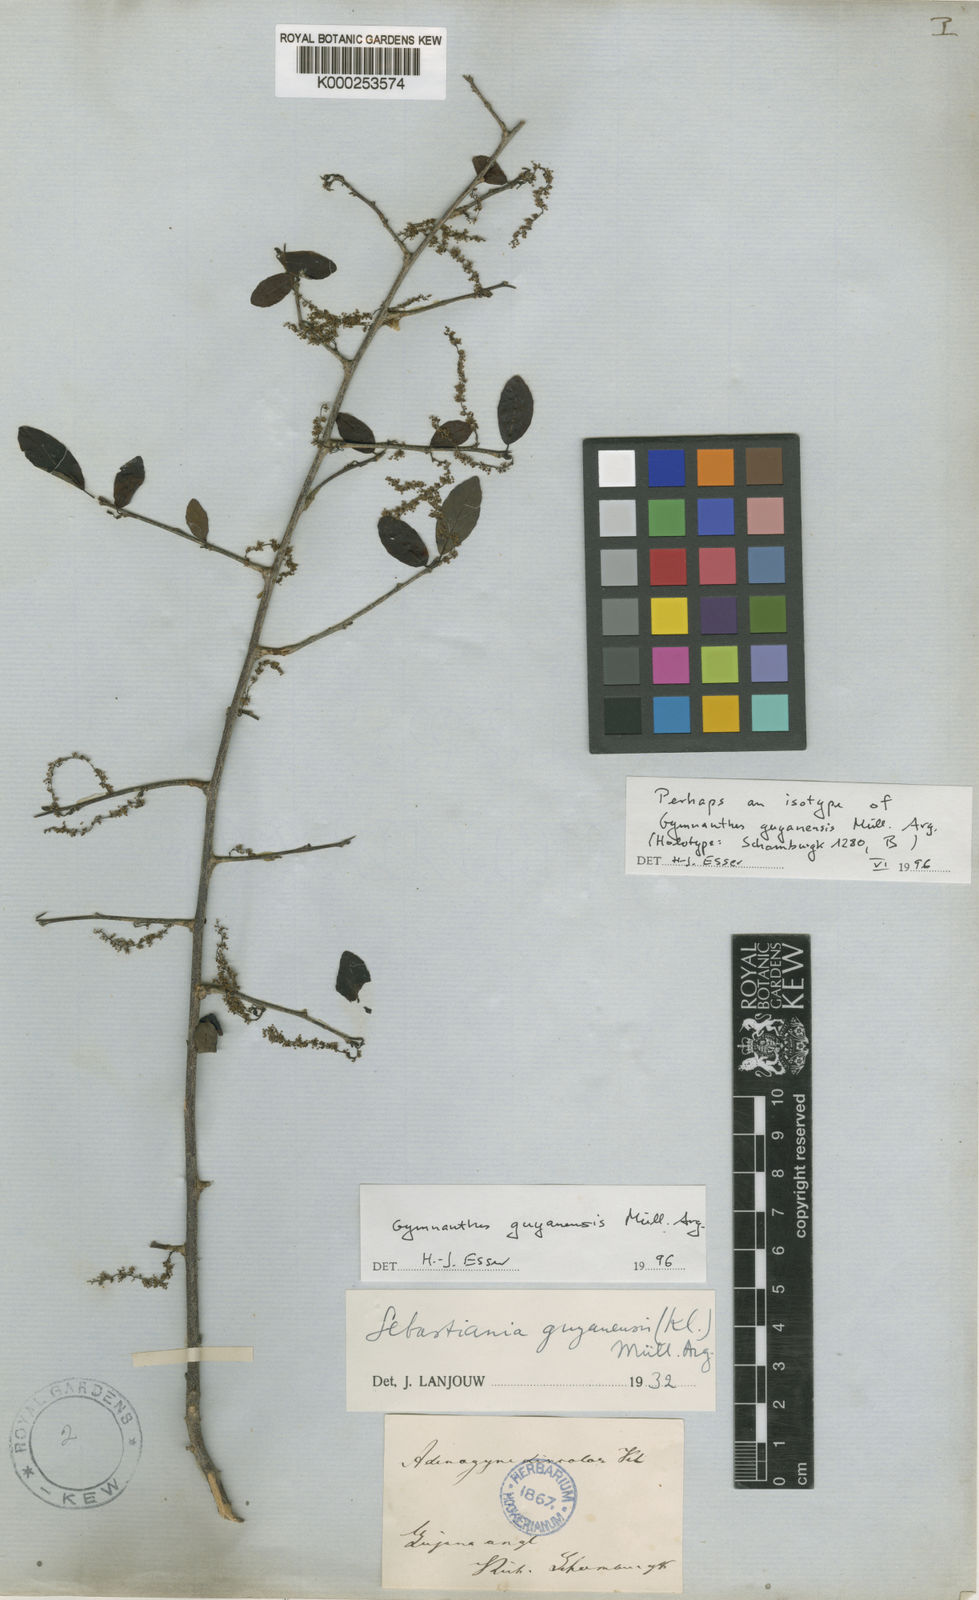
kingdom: Plantae
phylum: Tracheophyta
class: Magnoliopsida
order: Malpighiales
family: Euphorbiaceae
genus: Gymnanthes
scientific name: Gymnanthes
